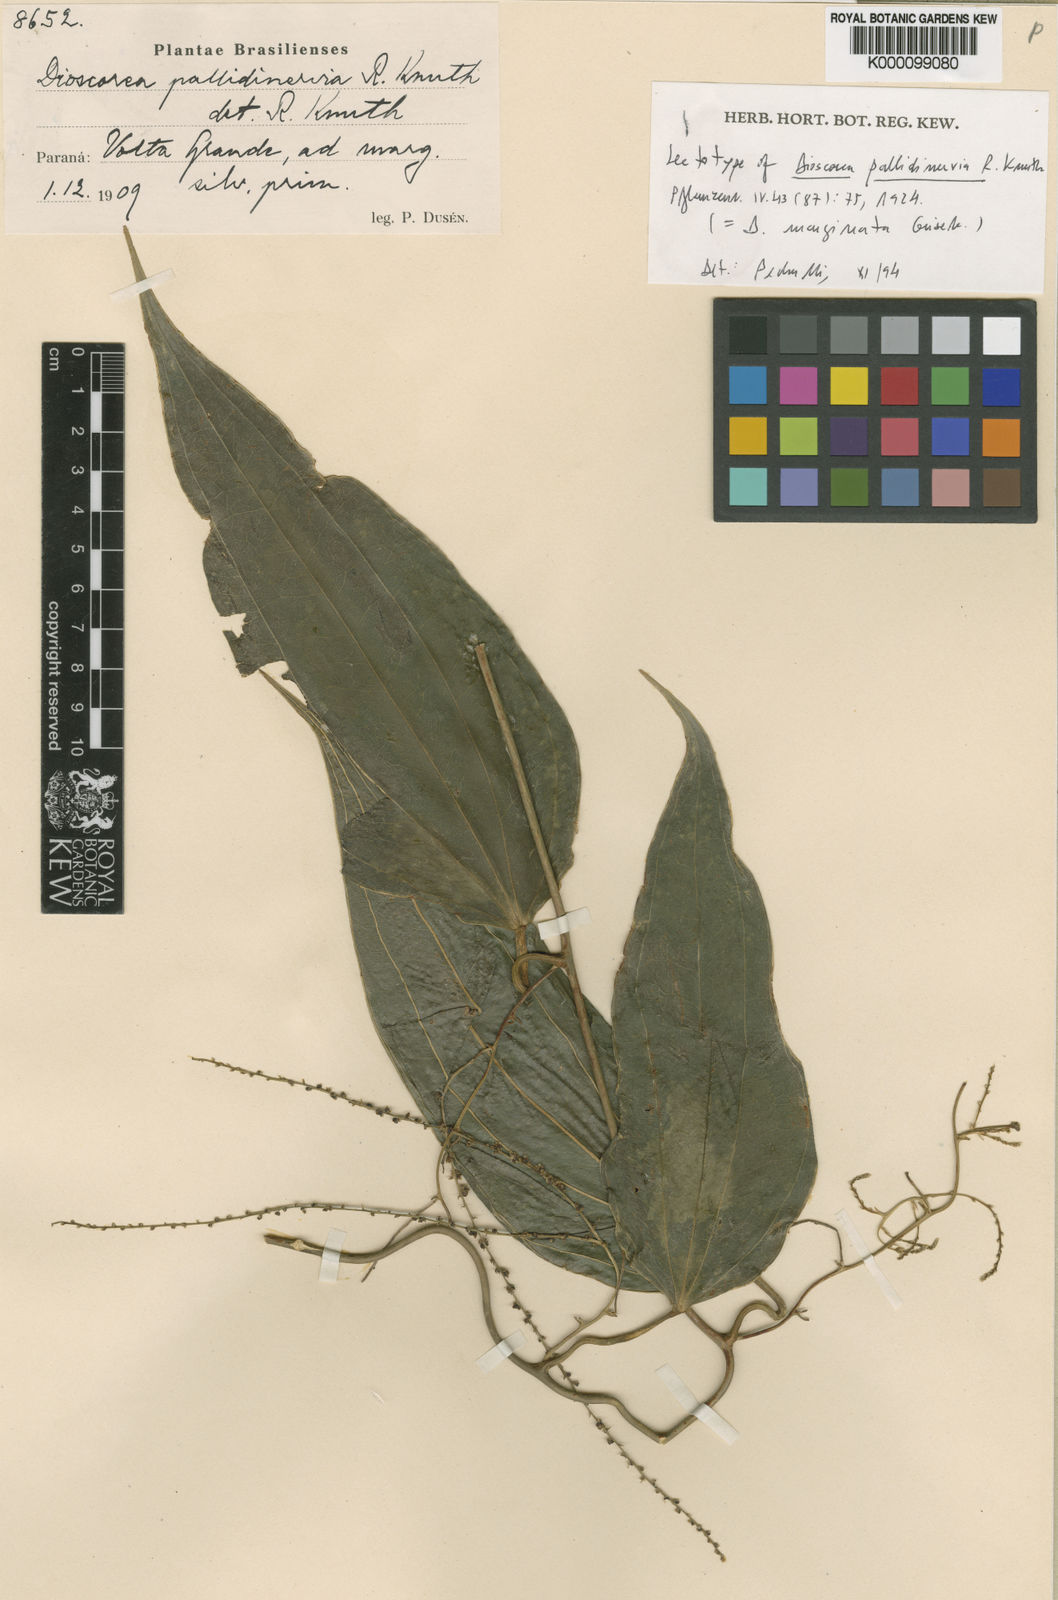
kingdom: Plantae
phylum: Tracheophyta
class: Liliopsida
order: Dioscoreales
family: Dioscoreaceae
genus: Dioscorea
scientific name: Dioscorea marginata
